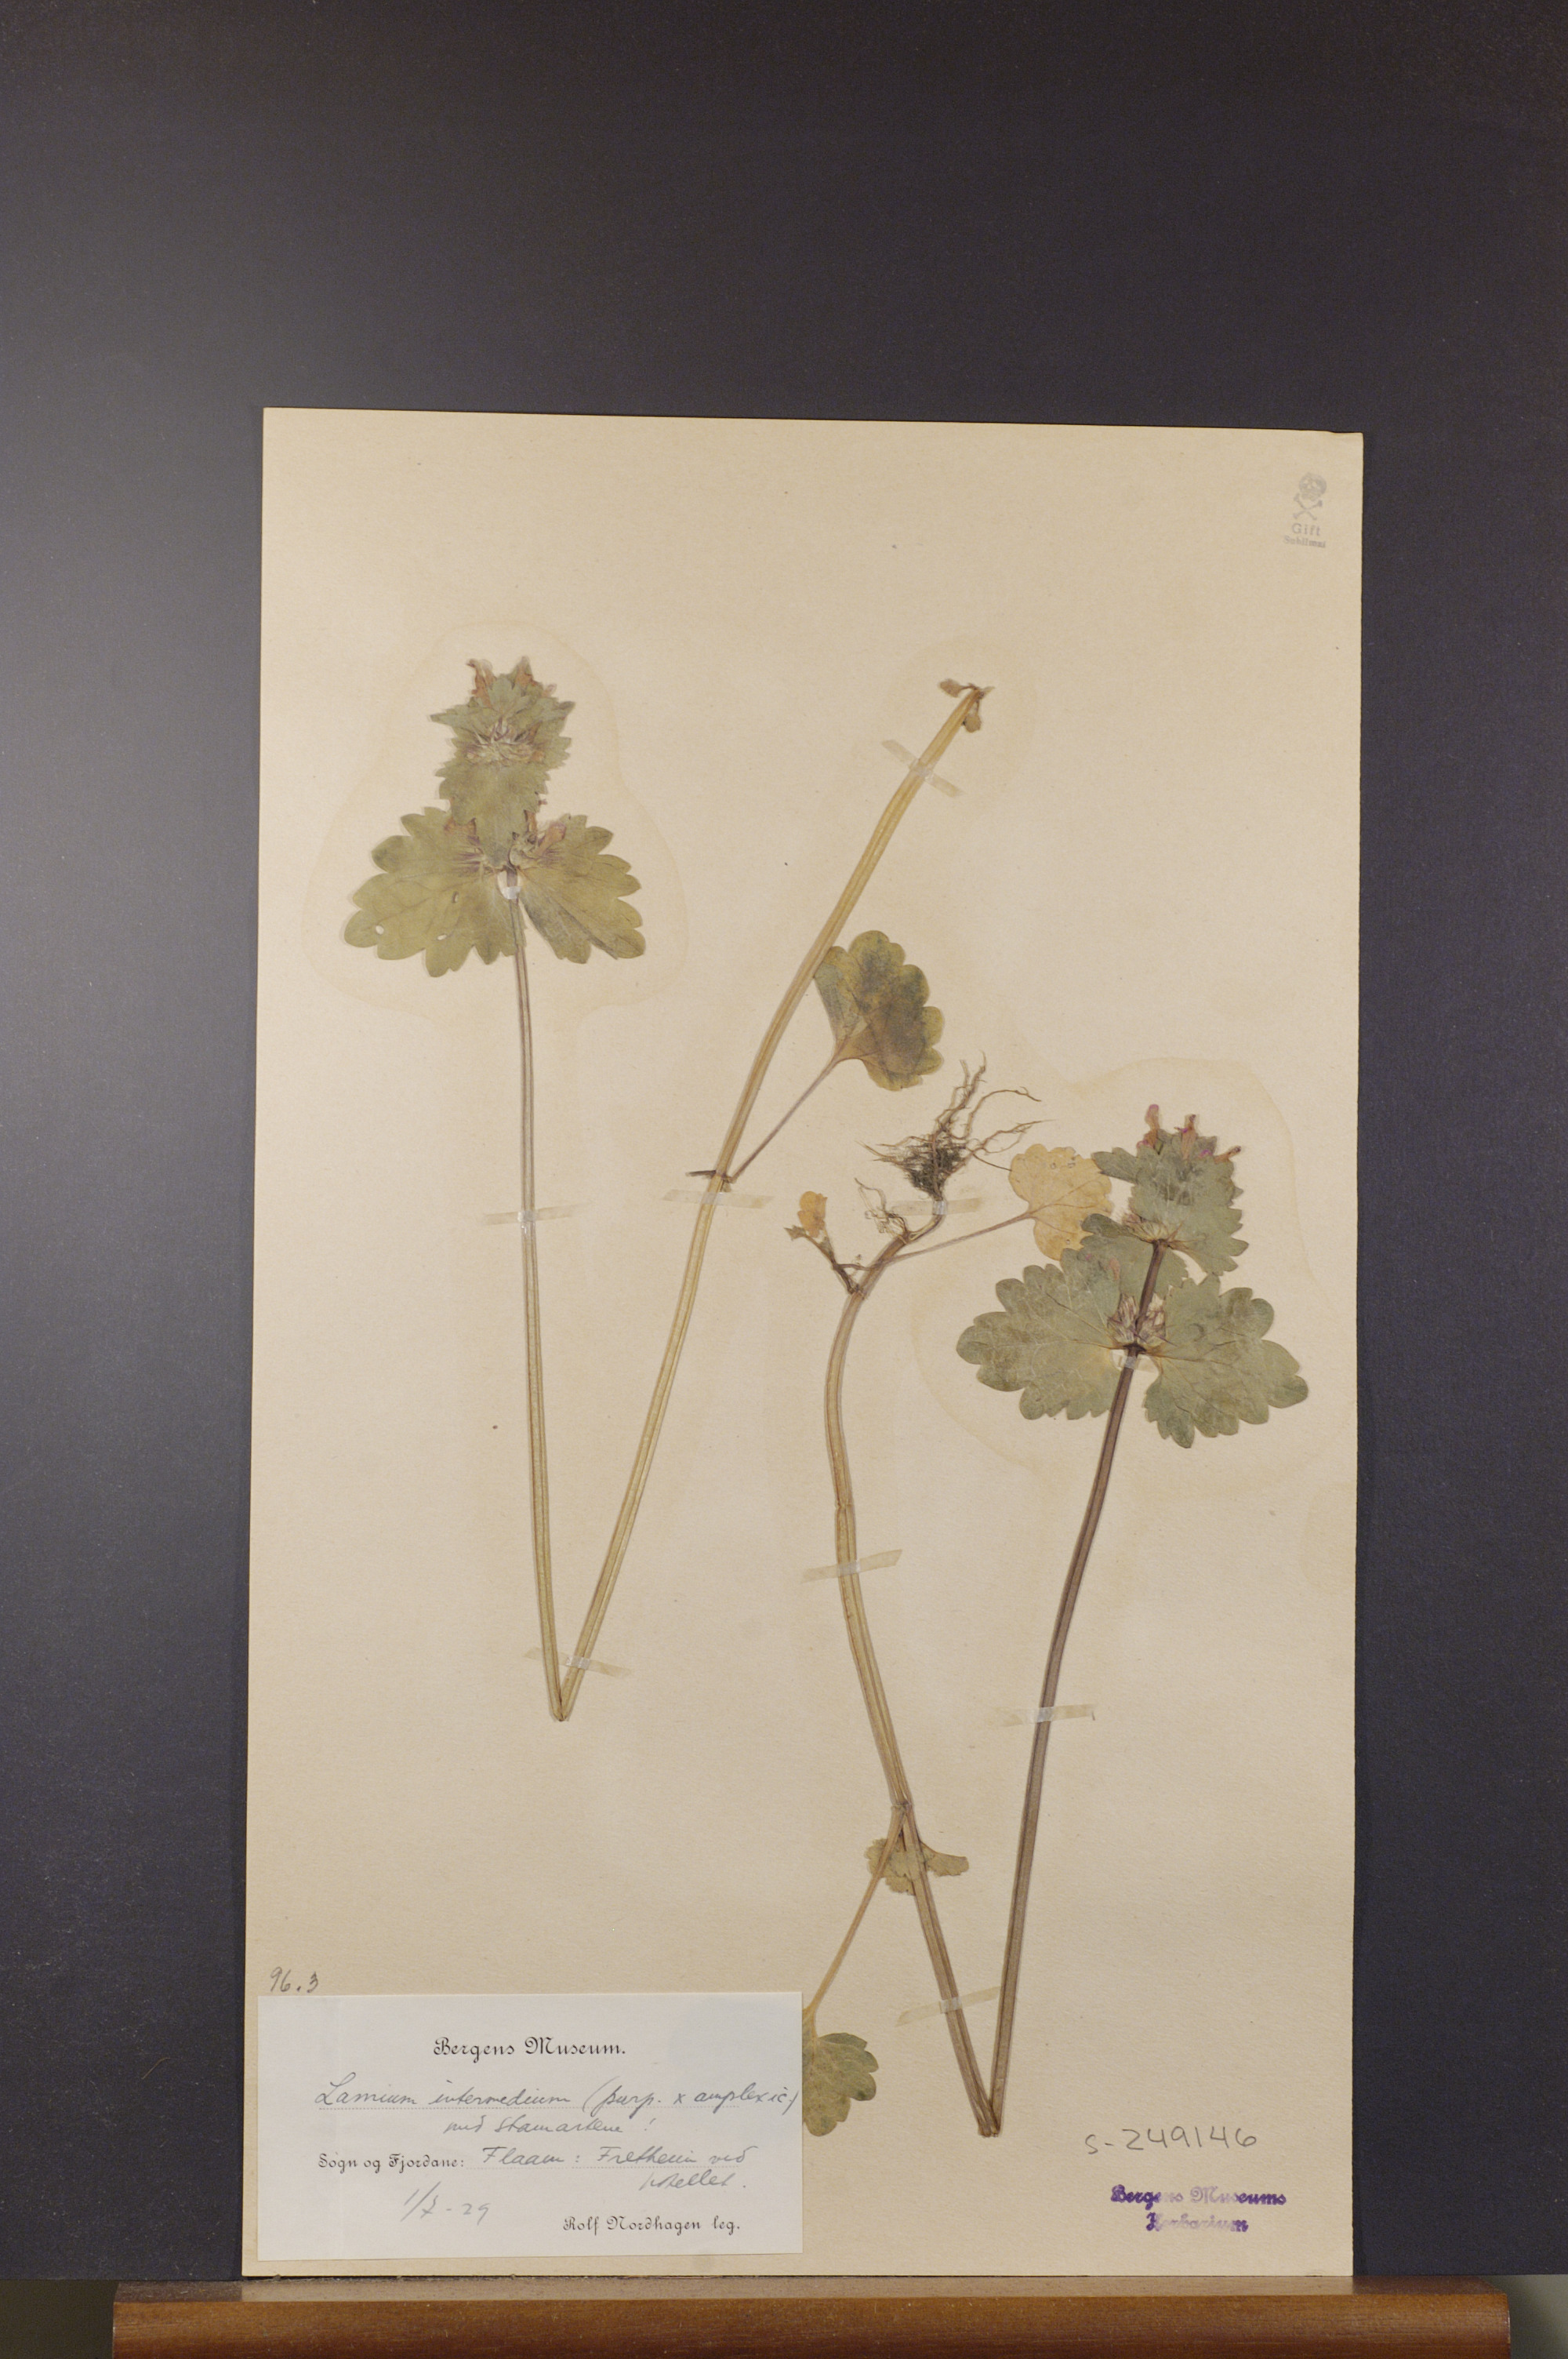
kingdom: Plantae
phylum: Tracheophyta
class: Magnoliopsida
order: Lamiales
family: Lamiaceae
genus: Lamium
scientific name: Lamium confertum
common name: Northern dead-nettle
